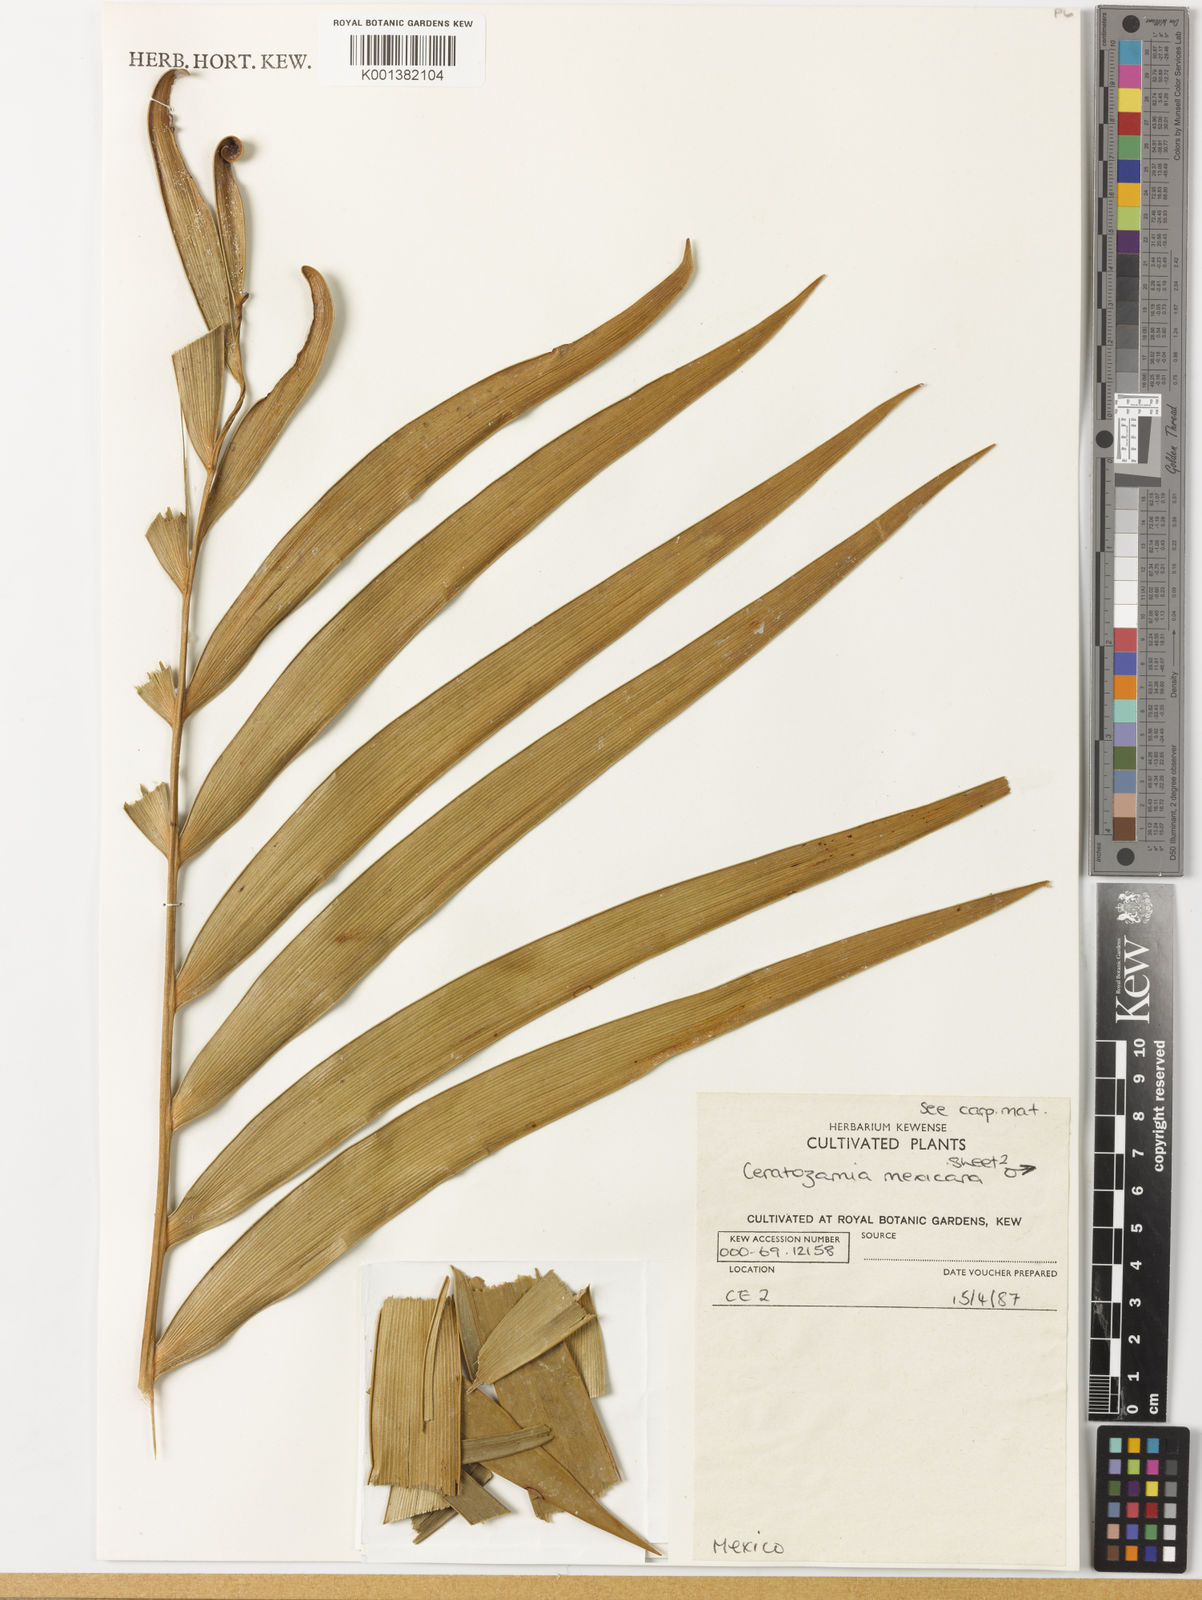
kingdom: Plantae
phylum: Tracheophyta
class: Cycadopsida
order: Cycadales
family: Zamiaceae
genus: Ceratozamia
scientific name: Ceratozamia mexicana
